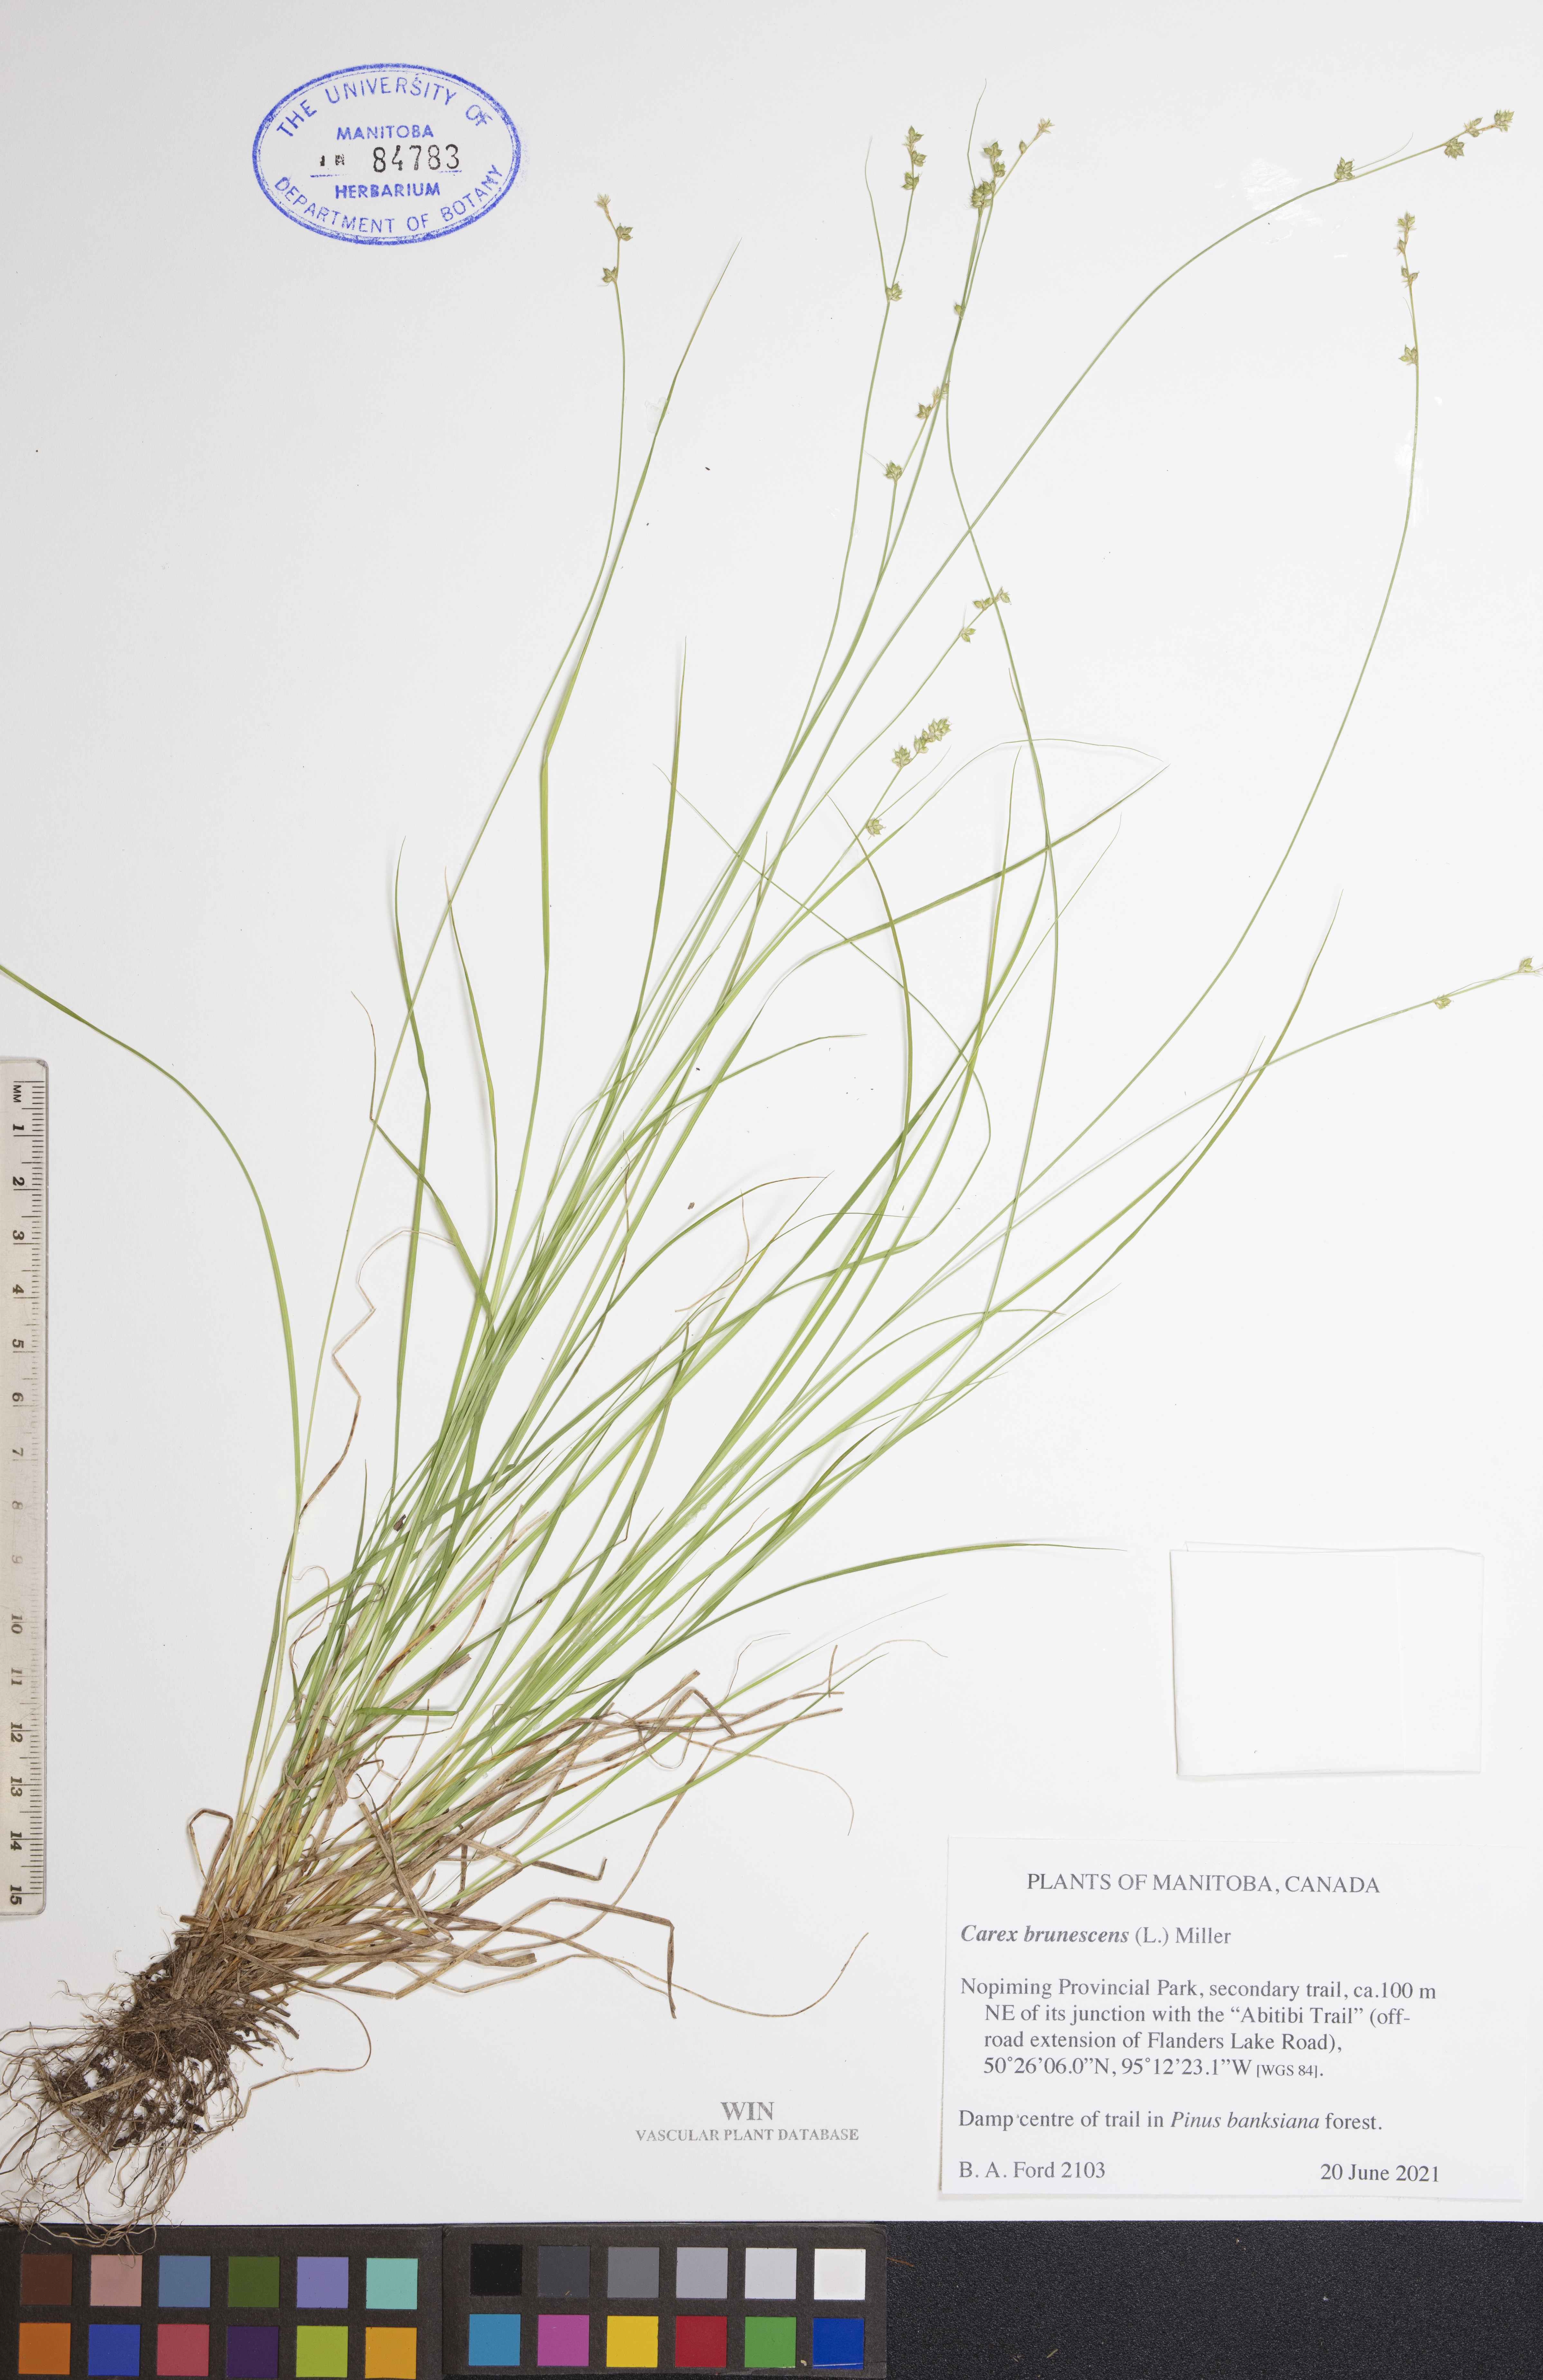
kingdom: Plantae
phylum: Tracheophyta
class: Liliopsida
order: Poales
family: Cyperaceae
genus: Carex
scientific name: Carex brunnescens
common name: Brown sedge
